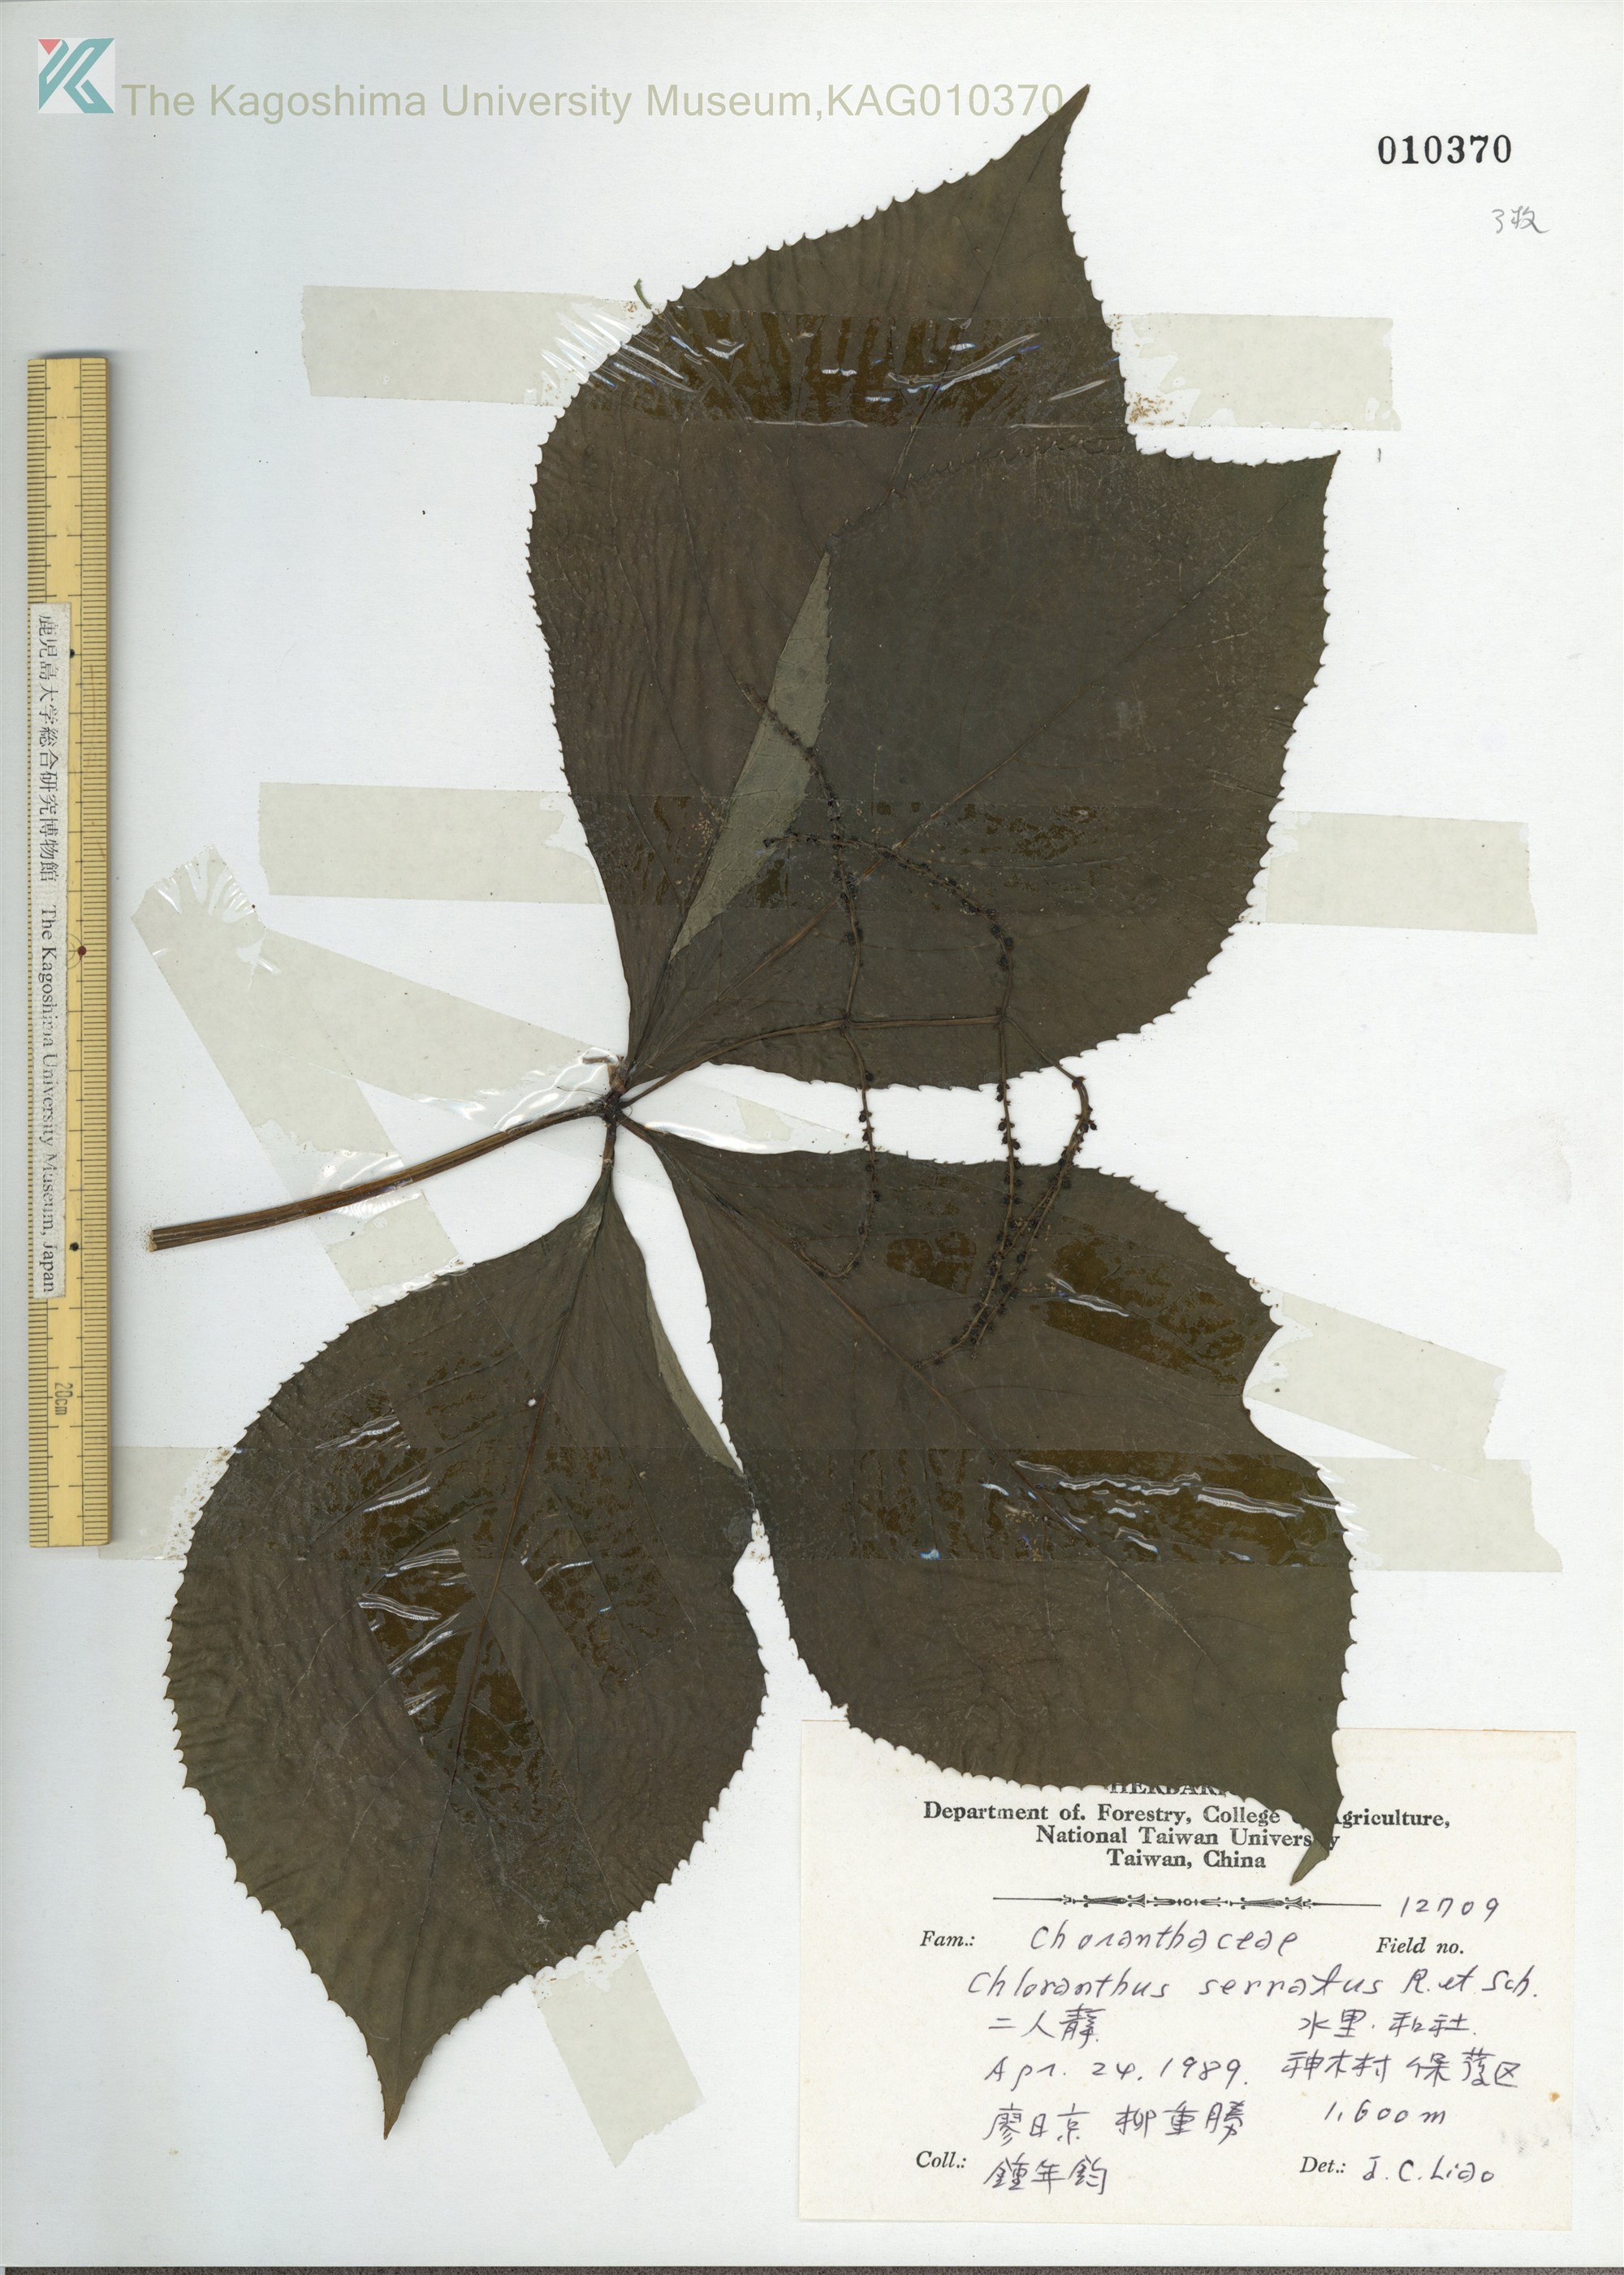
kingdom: Plantae
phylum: Tracheophyta
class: Magnoliopsida
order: Chloranthales
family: Chloranthaceae
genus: Chloranthus
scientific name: Chloranthus oldhamii
